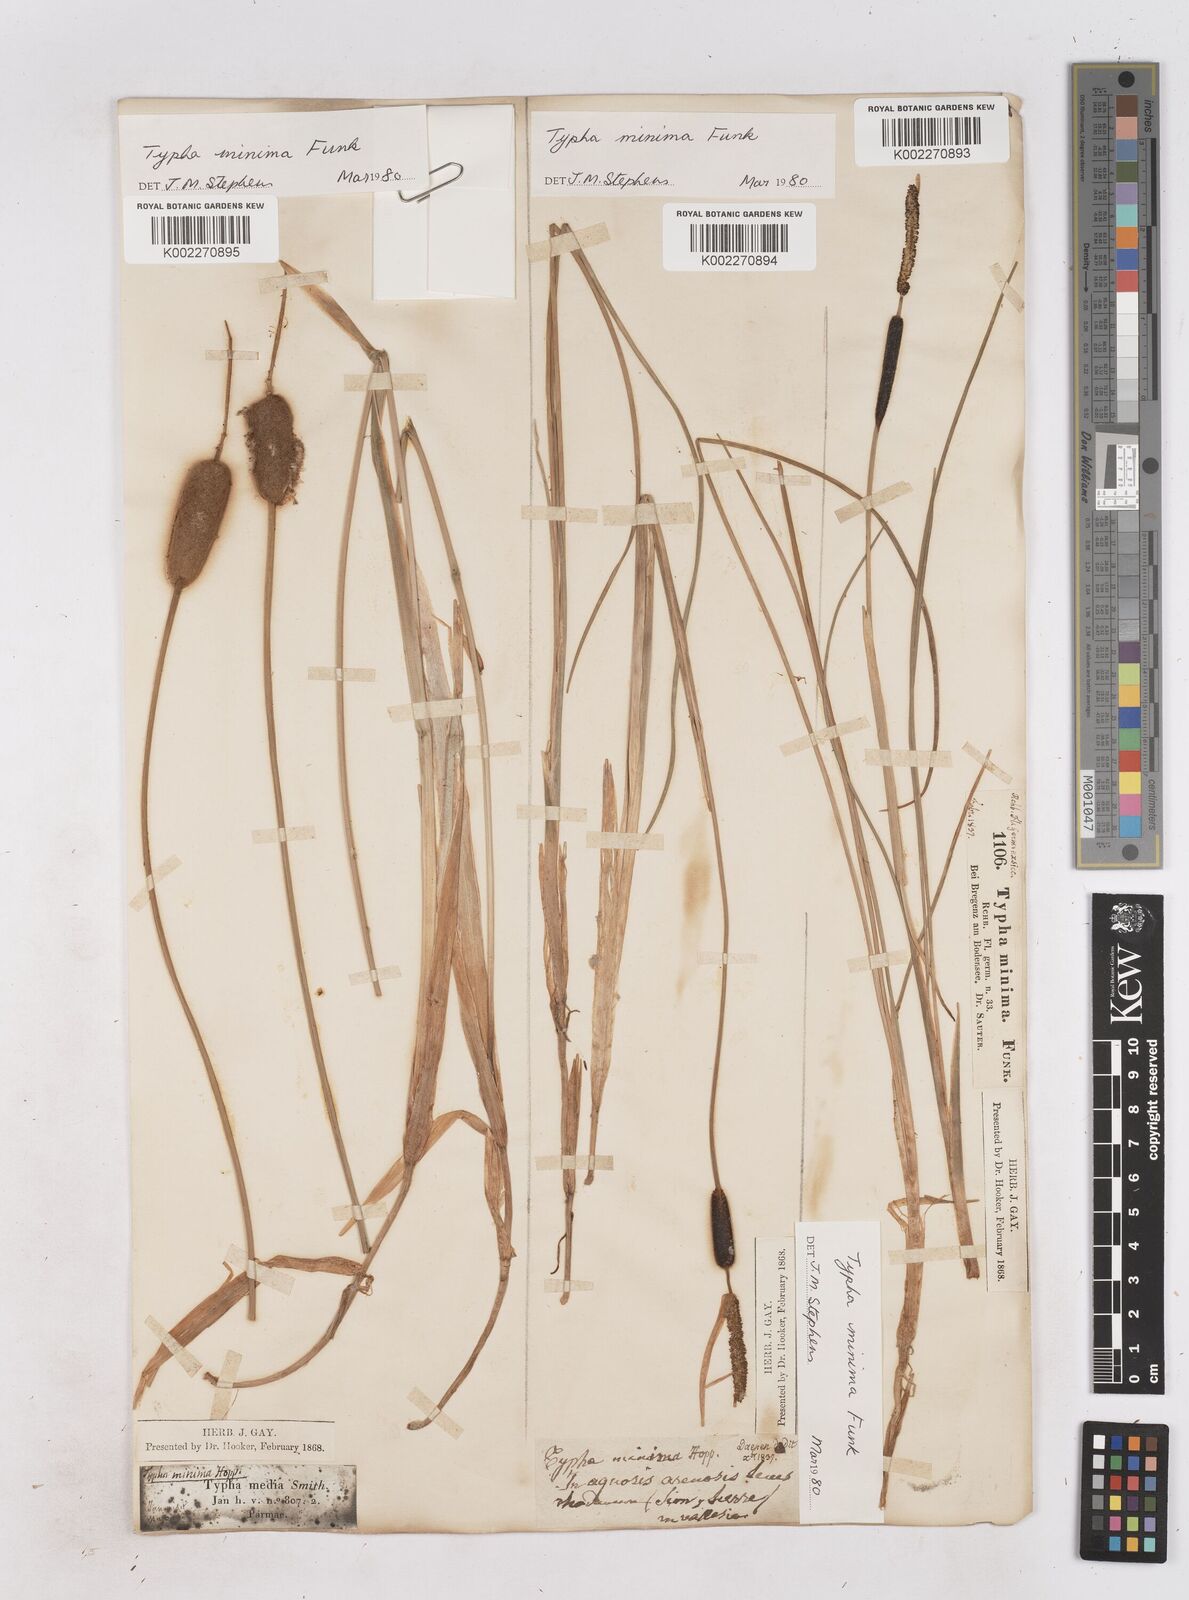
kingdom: Plantae
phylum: Tracheophyta
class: Liliopsida
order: Poales
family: Typhaceae
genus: Typha
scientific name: Typha minima
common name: Dwarf bulrush
